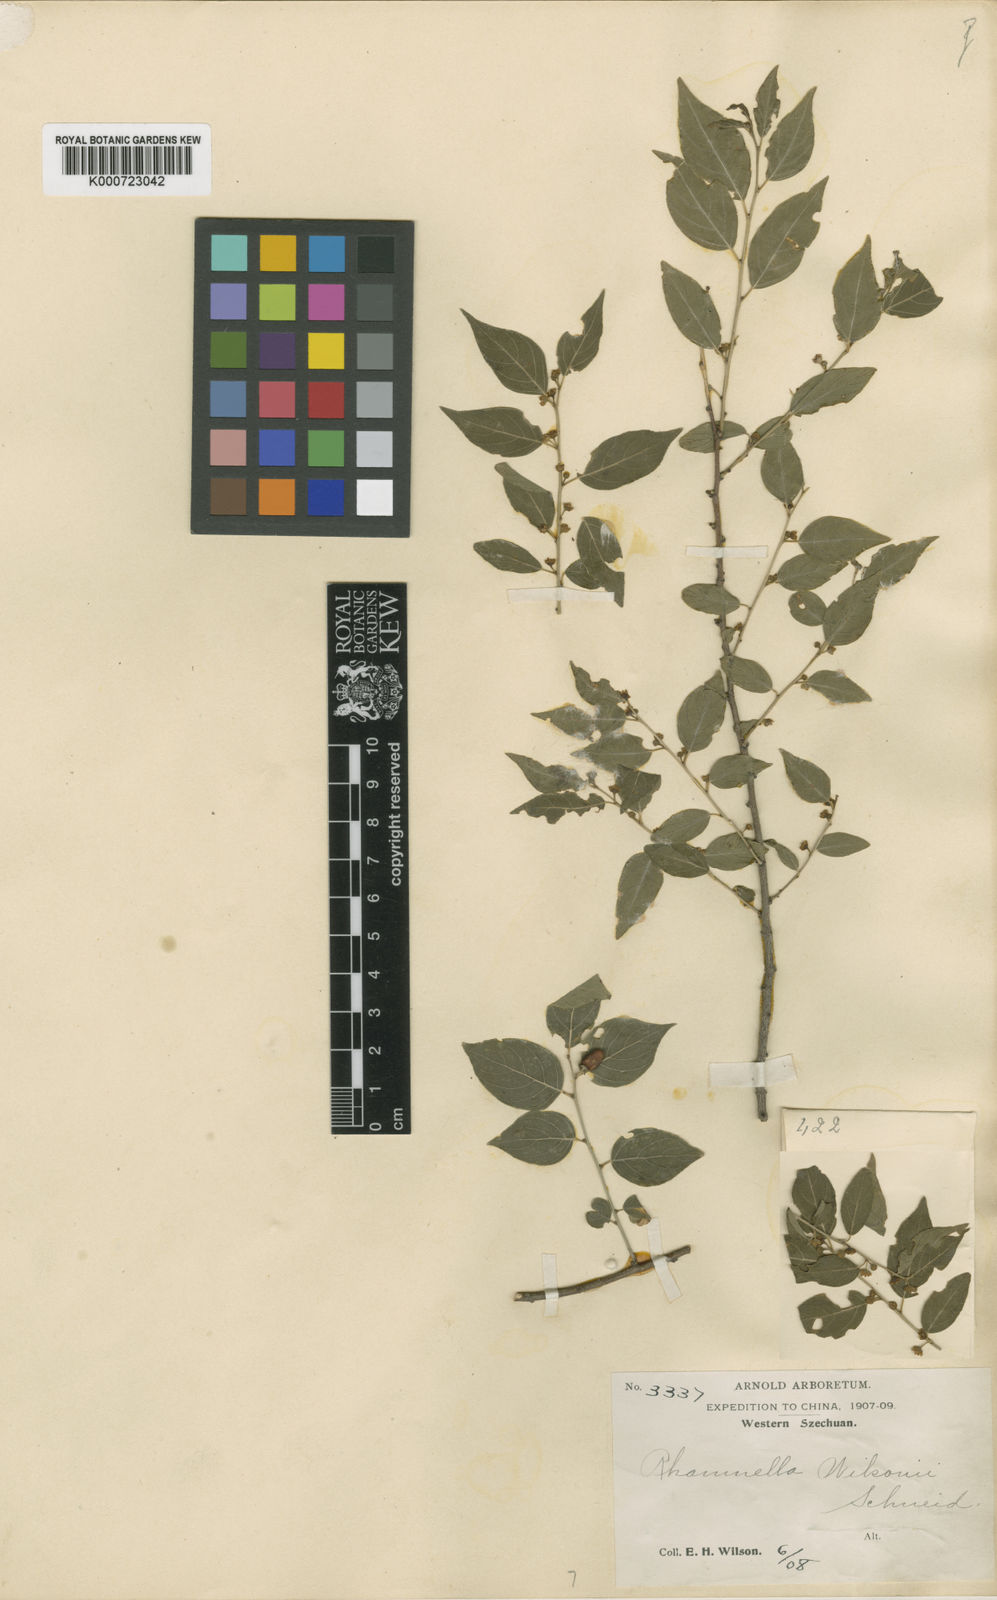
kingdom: Plantae
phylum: Tracheophyta
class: Magnoliopsida
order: Rosales
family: Rhamnaceae
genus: Rhamnella
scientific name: Rhamnella wilsonii
